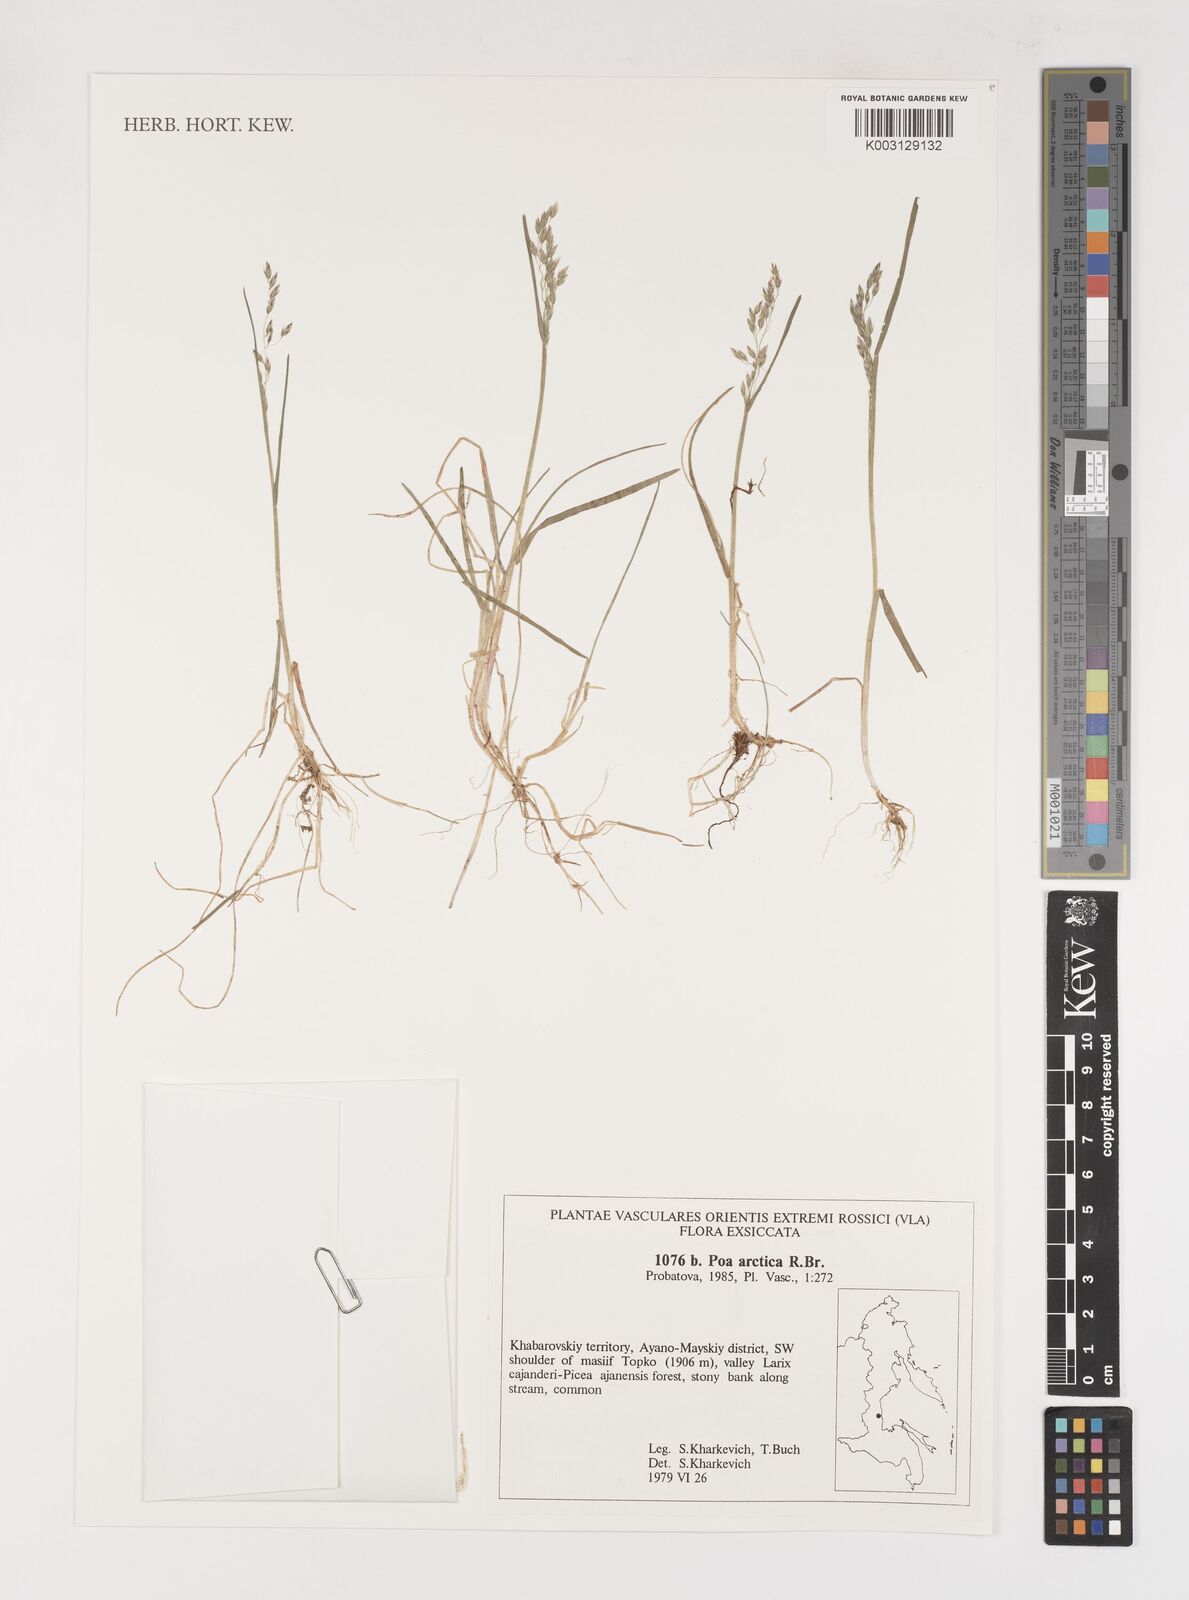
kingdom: Plantae
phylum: Tracheophyta
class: Liliopsida
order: Poales
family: Poaceae
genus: Poa
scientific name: Poa arctica
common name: Arctic bluegrass
